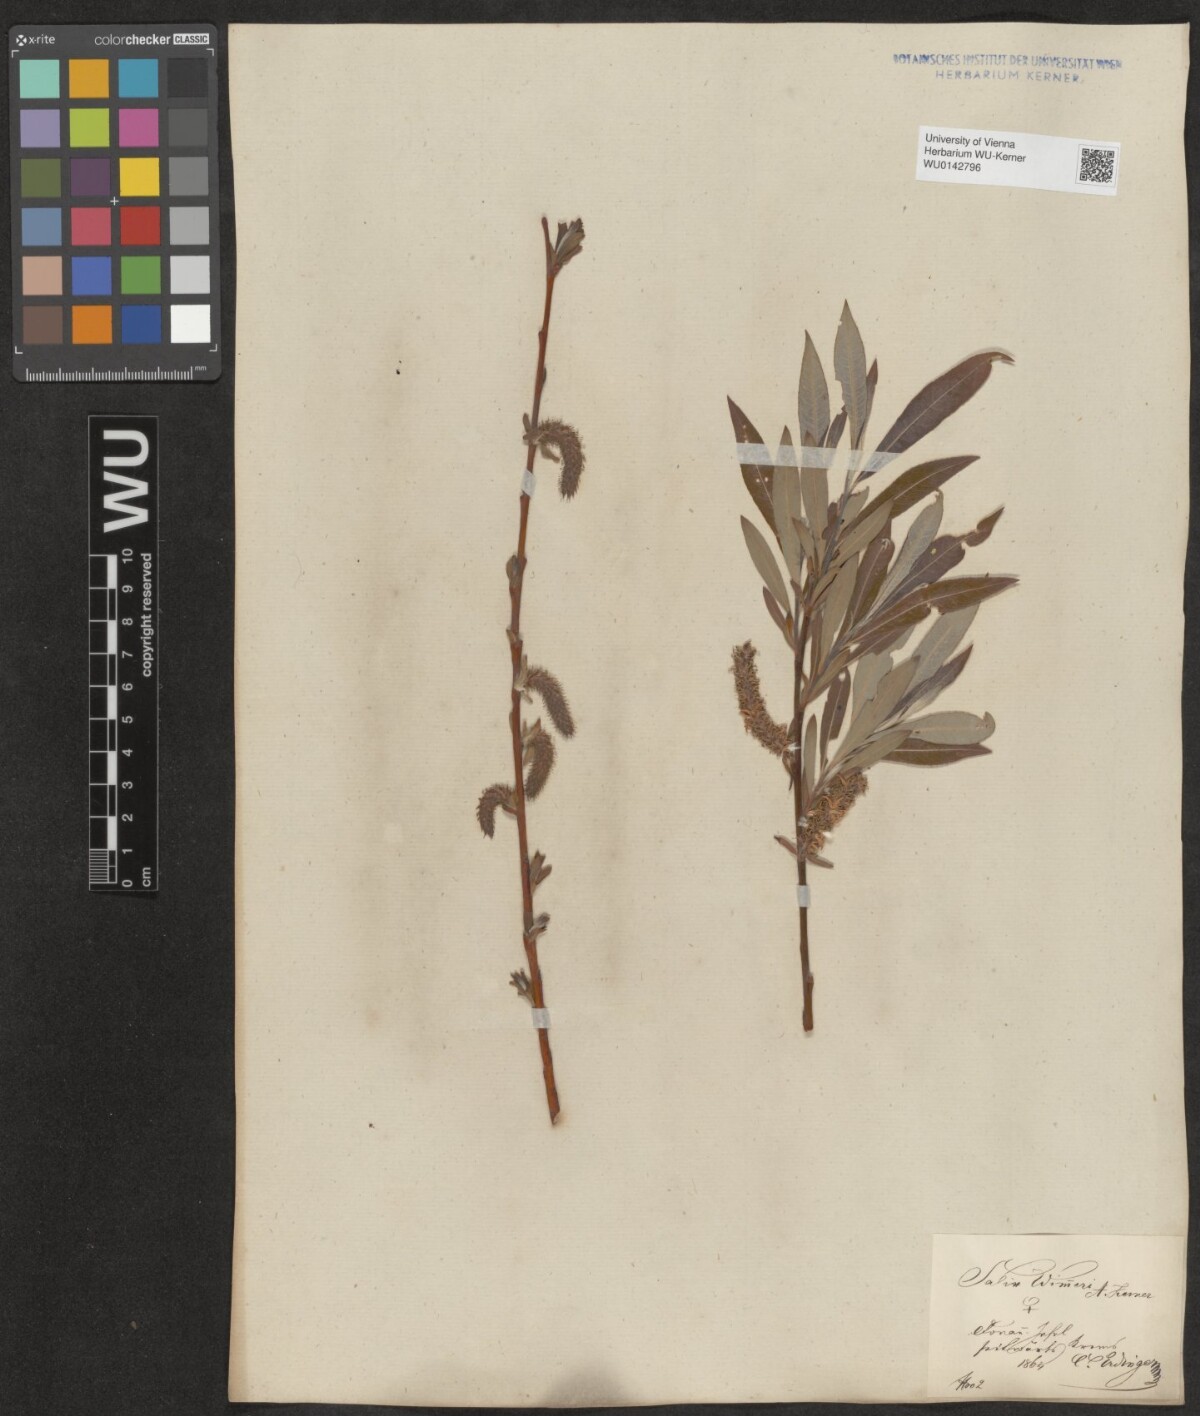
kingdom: Plantae
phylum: Tracheophyta
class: Magnoliopsida
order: Malpighiales
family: Salicaceae
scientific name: Salicaceae
